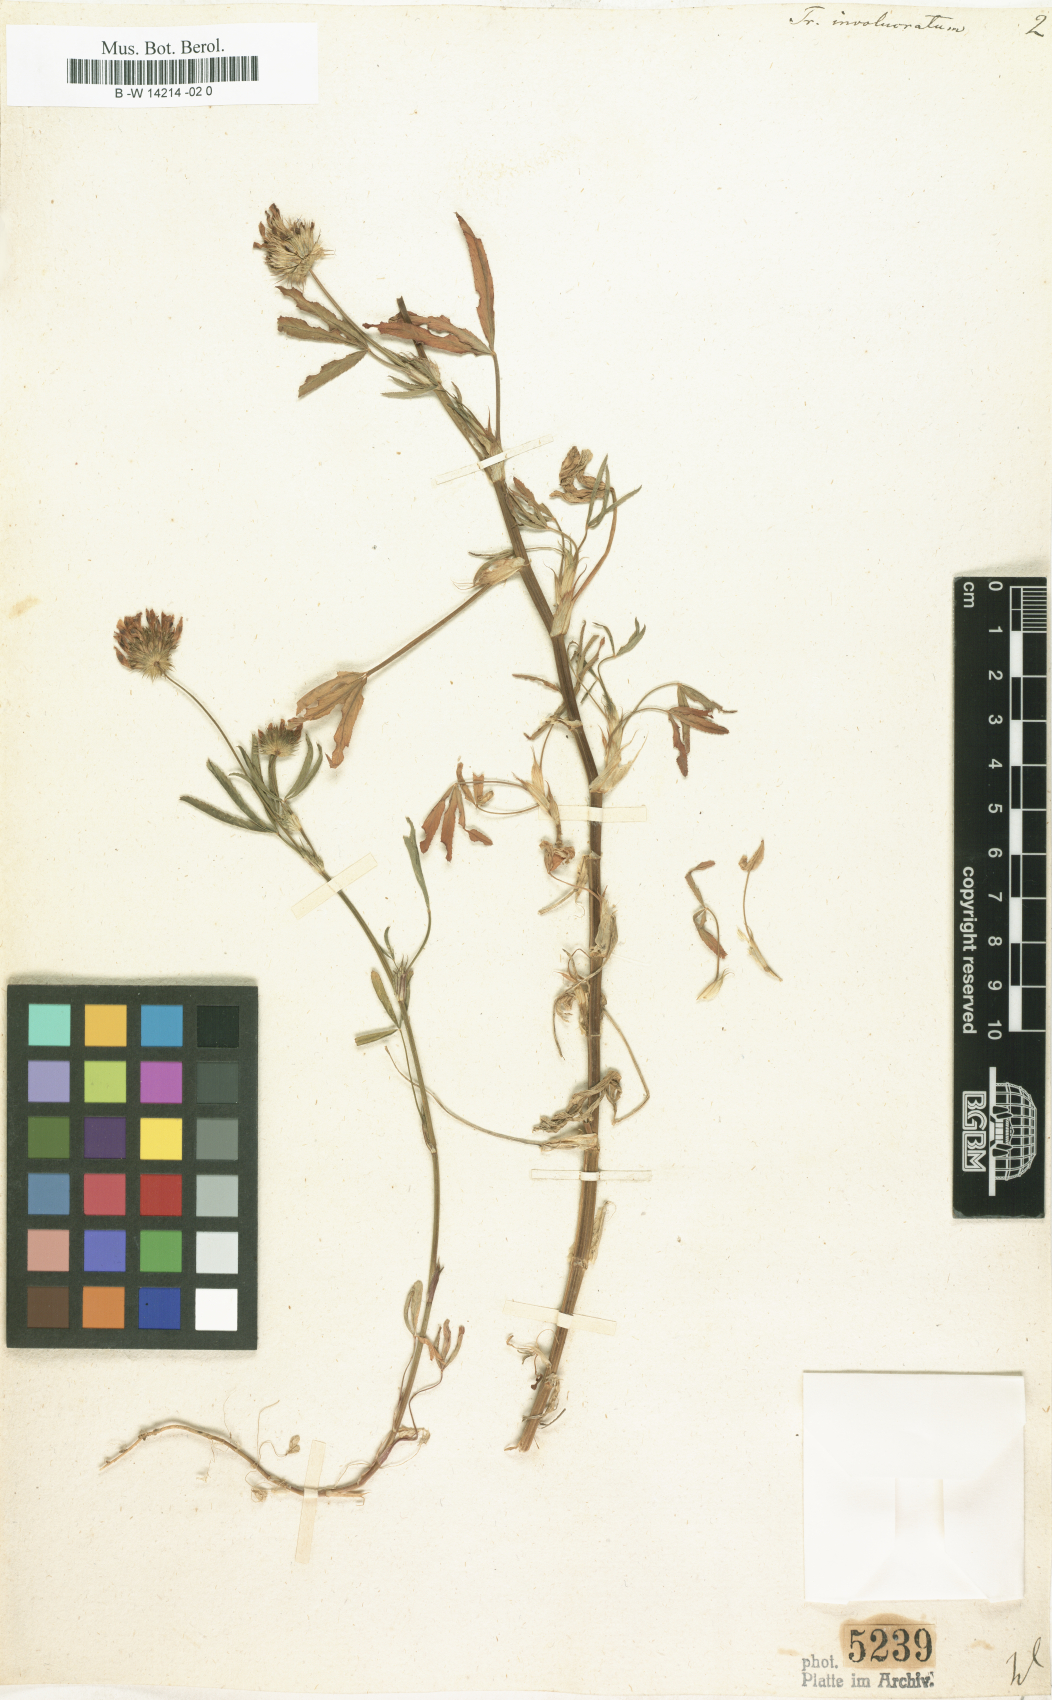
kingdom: Plantae
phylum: Tracheophyta
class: Magnoliopsida
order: Fabales
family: Fabaceae
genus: Trifolium
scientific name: Trifolium
